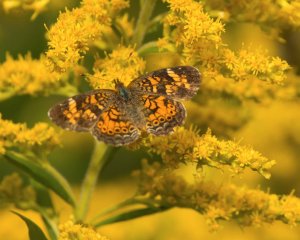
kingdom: Animalia
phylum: Arthropoda
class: Insecta
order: Lepidoptera
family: Nymphalidae
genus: Phyciodes
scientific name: Phyciodes tharos
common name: Northern Crescent
